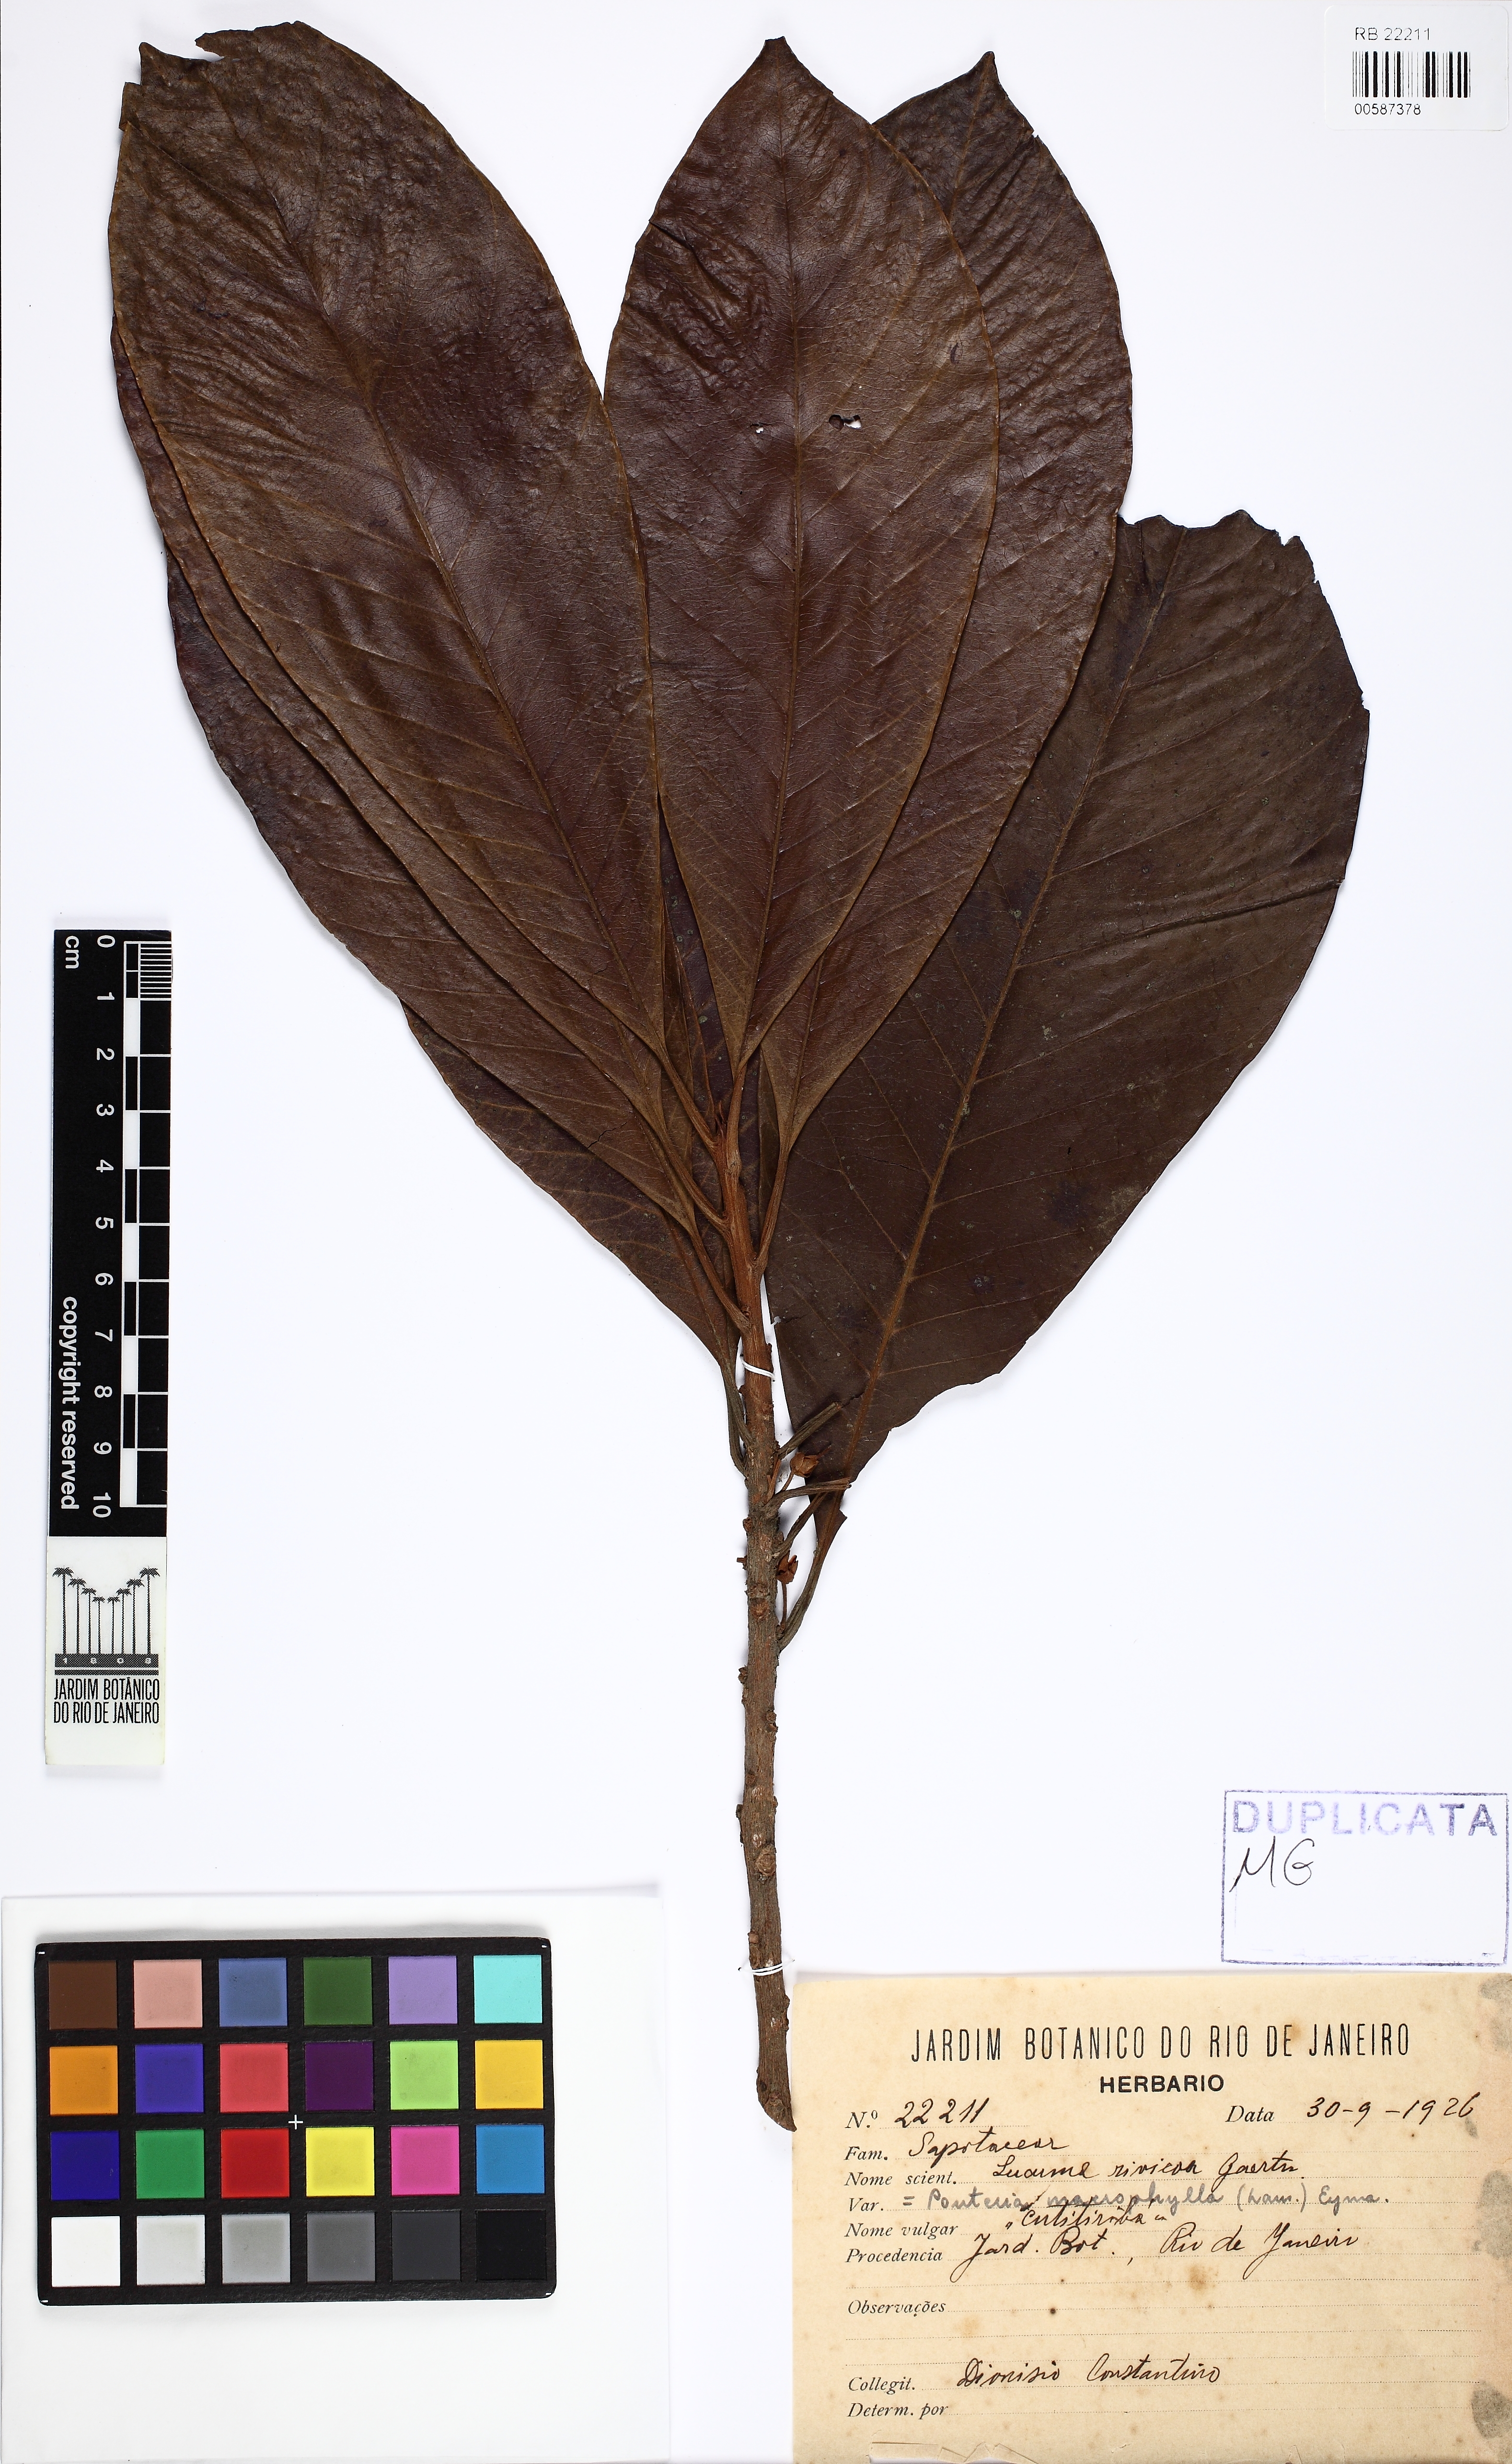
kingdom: Plantae
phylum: Tracheophyta
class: Magnoliopsida
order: Ericales
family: Sapotaceae
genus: Pouteria
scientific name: Pouteria macrophylla
